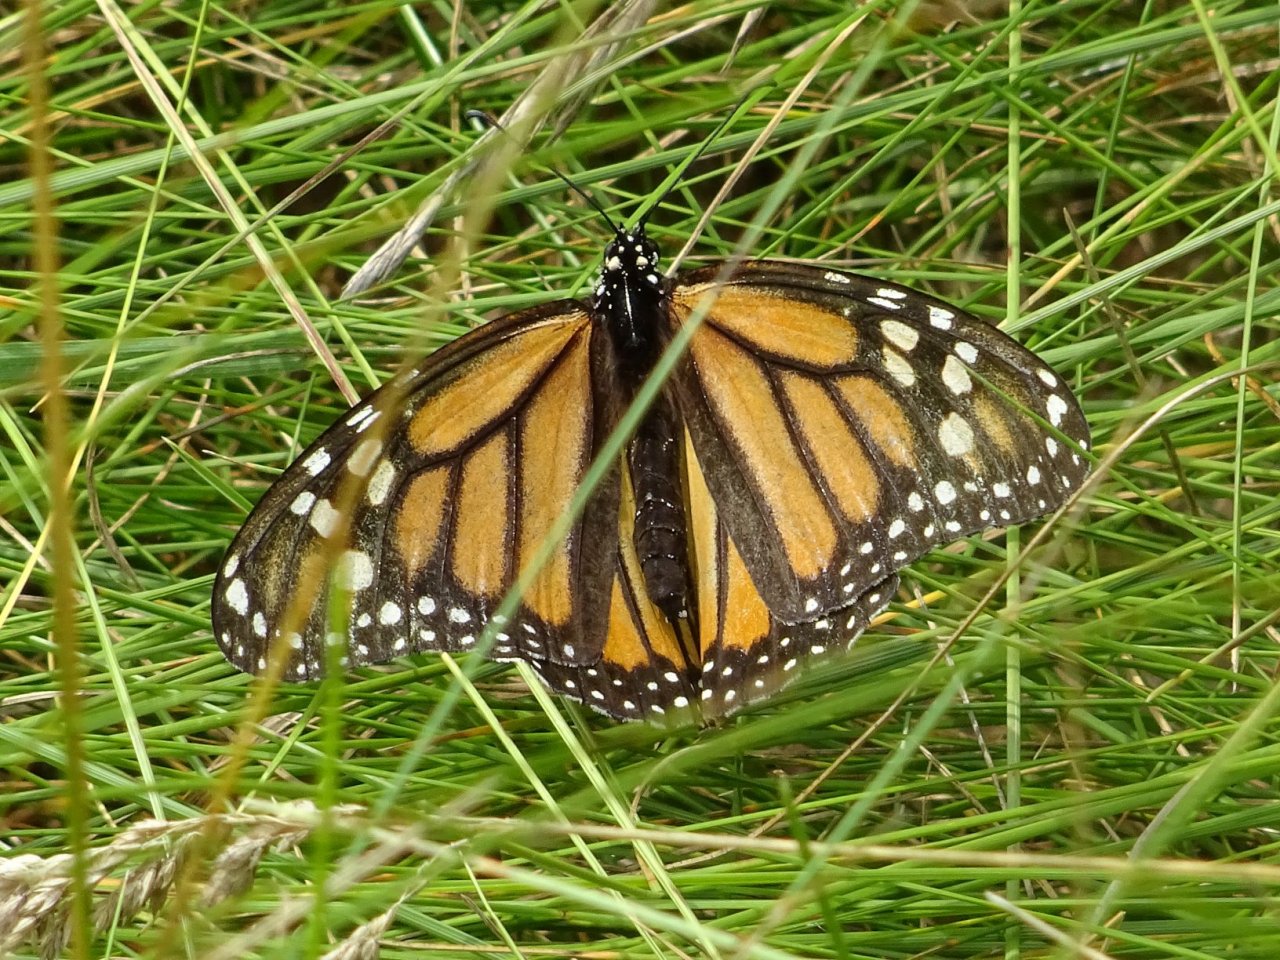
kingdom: Animalia
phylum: Arthropoda
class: Insecta
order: Lepidoptera
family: Nymphalidae
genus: Danaus
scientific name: Danaus plexippus
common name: Monarch
